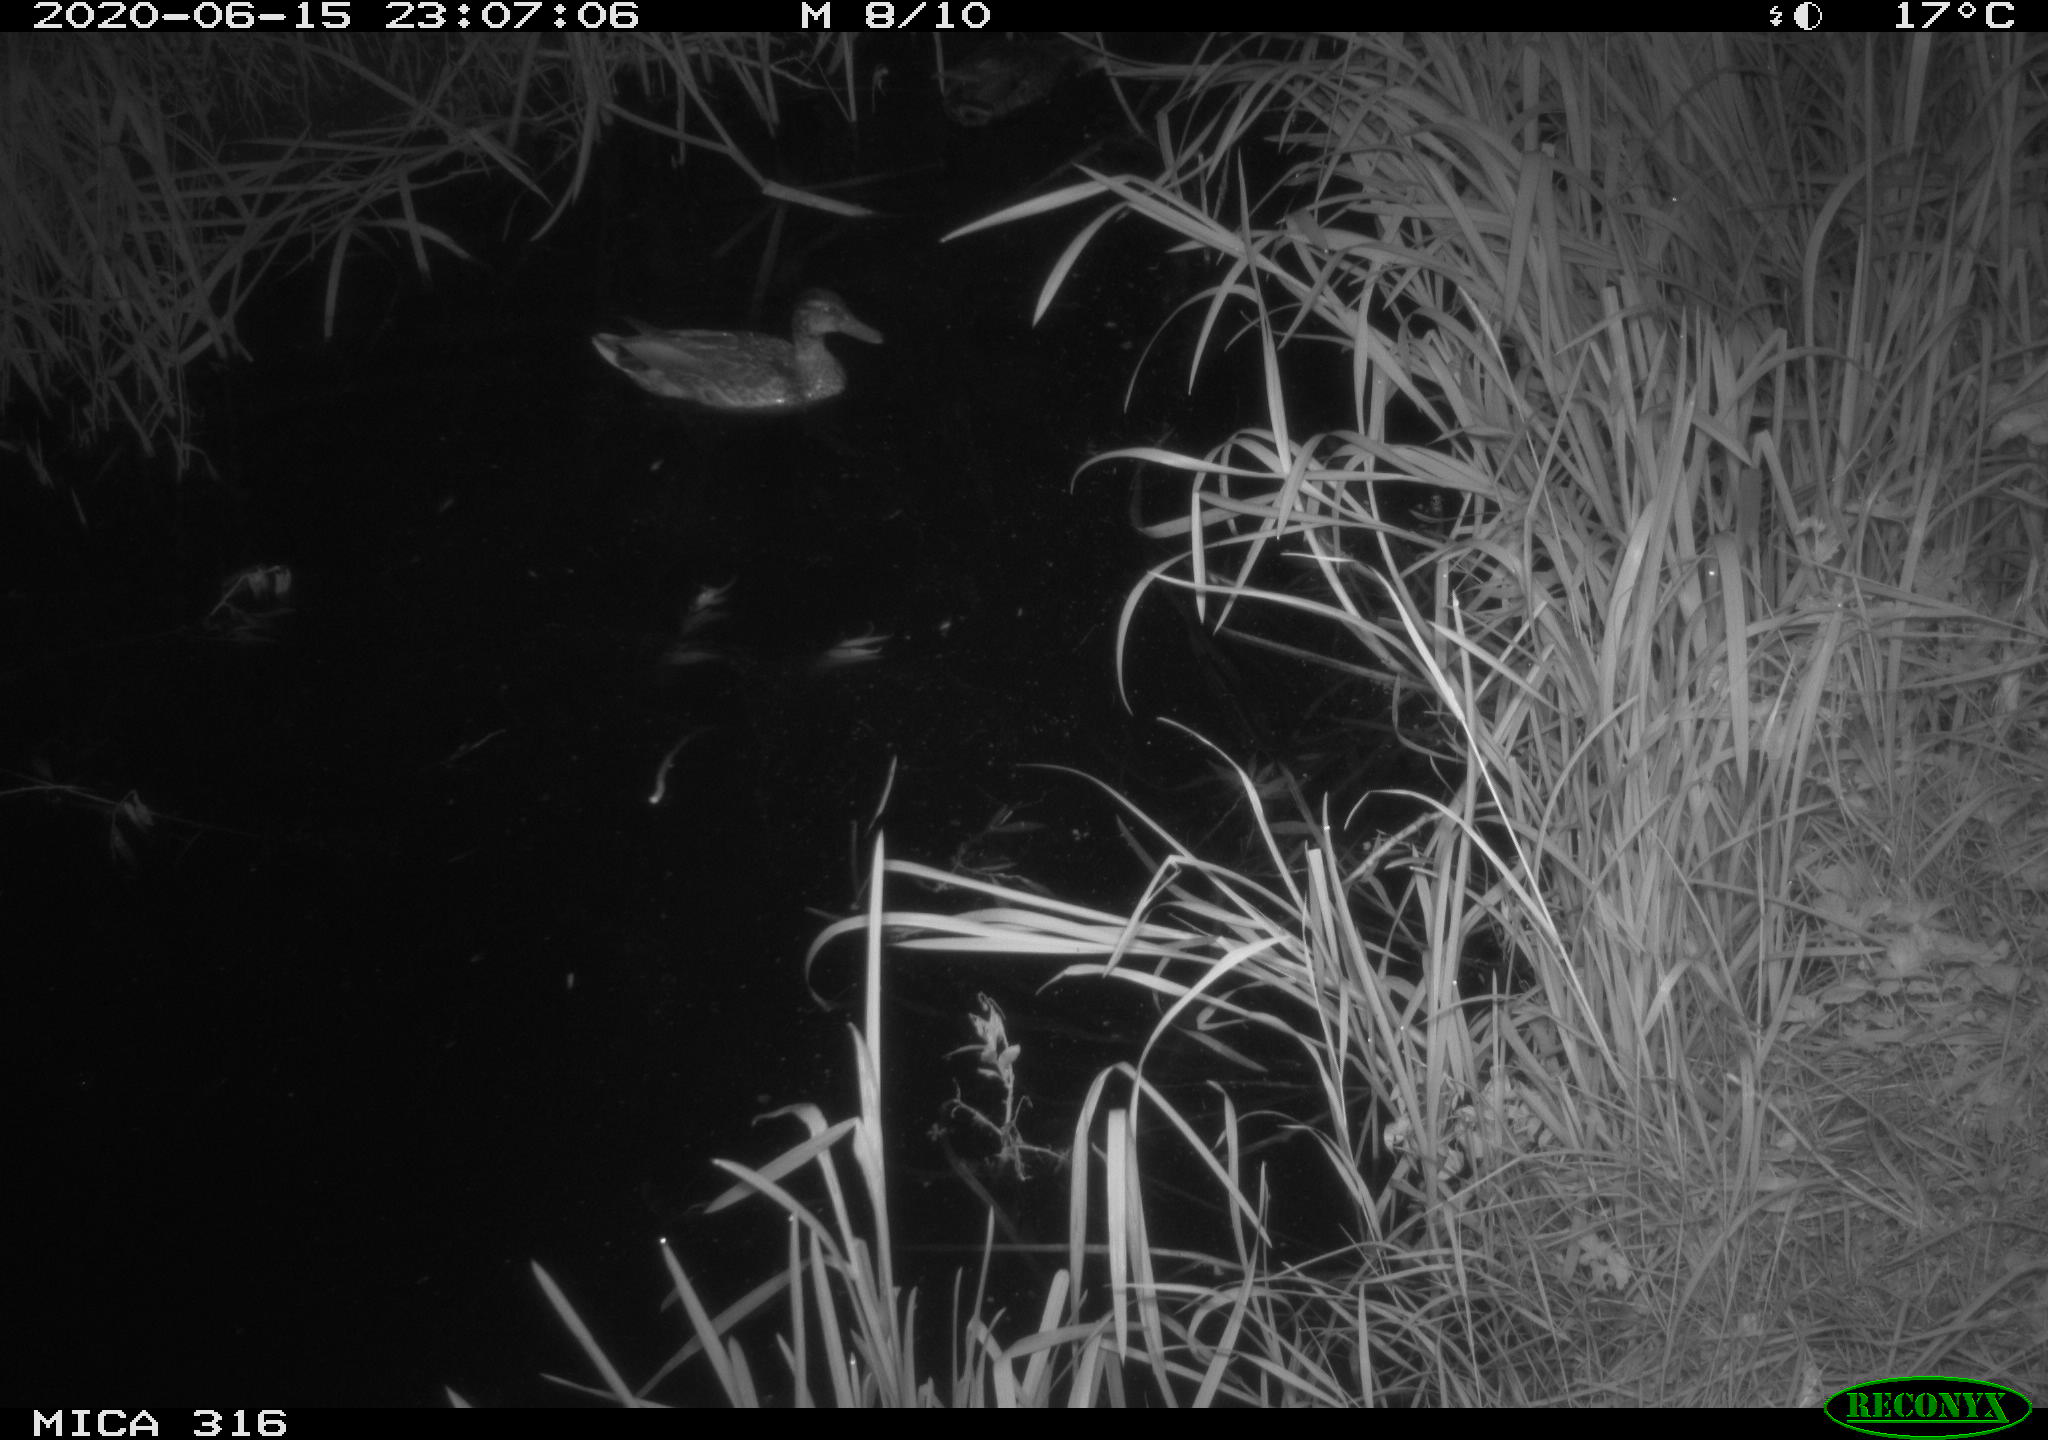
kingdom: Animalia
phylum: Chordata
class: Aves
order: Anseriformes
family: Anatidae
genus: Anas
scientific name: Anas platyrhynchos
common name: Mallard
